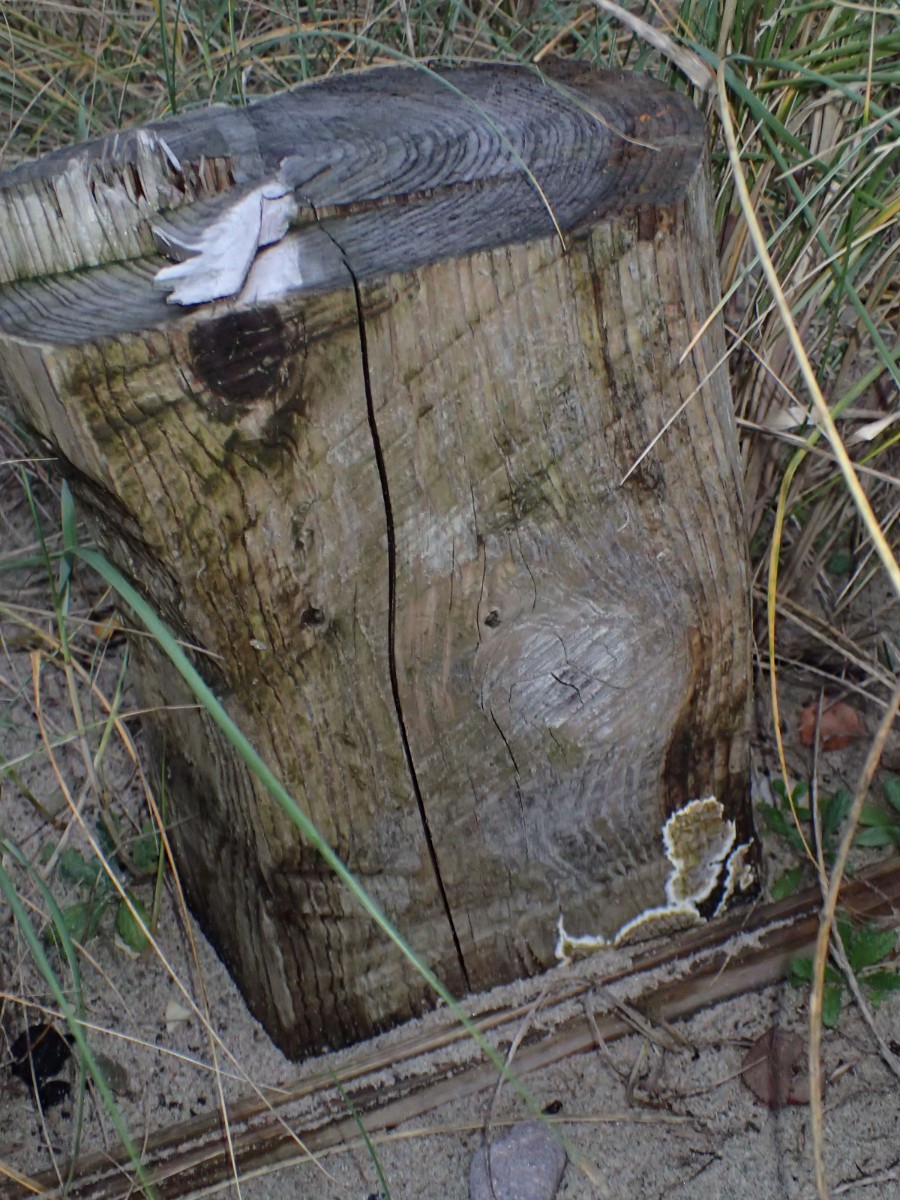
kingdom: Fungi
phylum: Basidiomycota
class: Agaricomycetes
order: Boletales
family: Coniophoraceae
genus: Coniophora
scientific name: Coniophora puteana
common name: gul tømmersvamp
